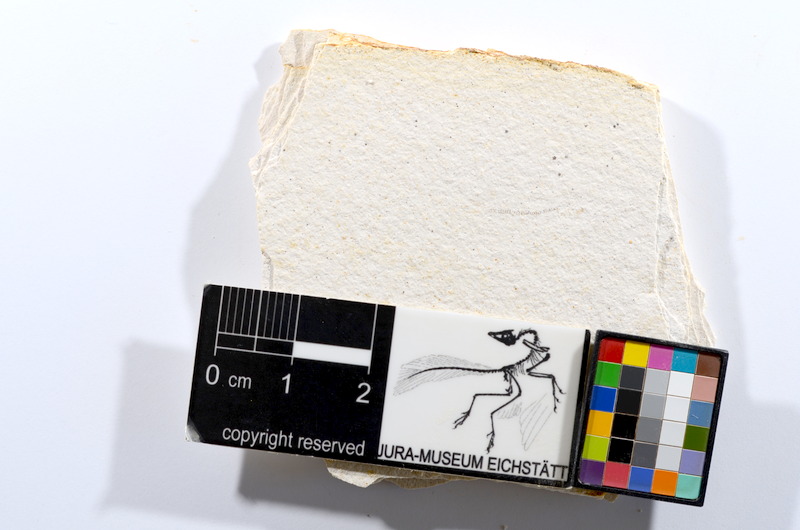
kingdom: Animalia
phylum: Chordata
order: Salmoniformes
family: Orthogonikleithridae
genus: Orthogonikleithrus
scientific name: Orthogonikleithrus hoelli
